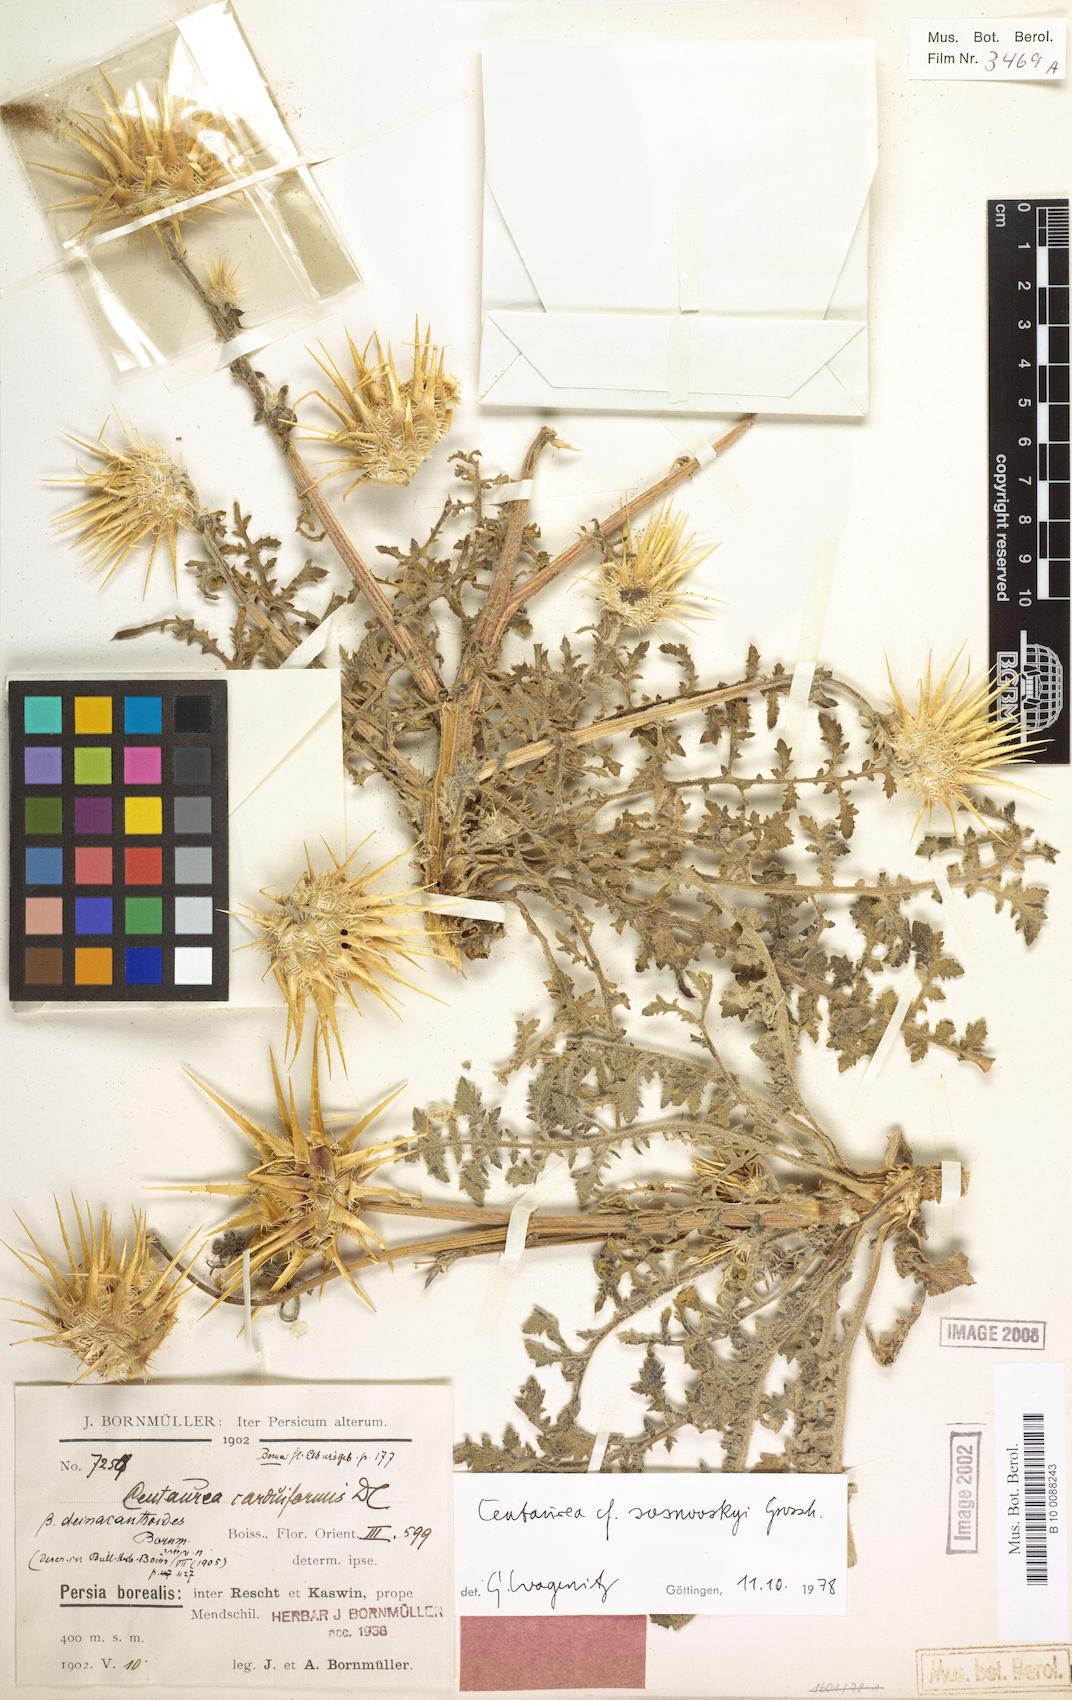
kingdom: Plantae
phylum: Tracheophyta
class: Magnoliopsida
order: Asterales
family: Asteraceae
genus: Centaurea
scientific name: Centaurea reflexa
